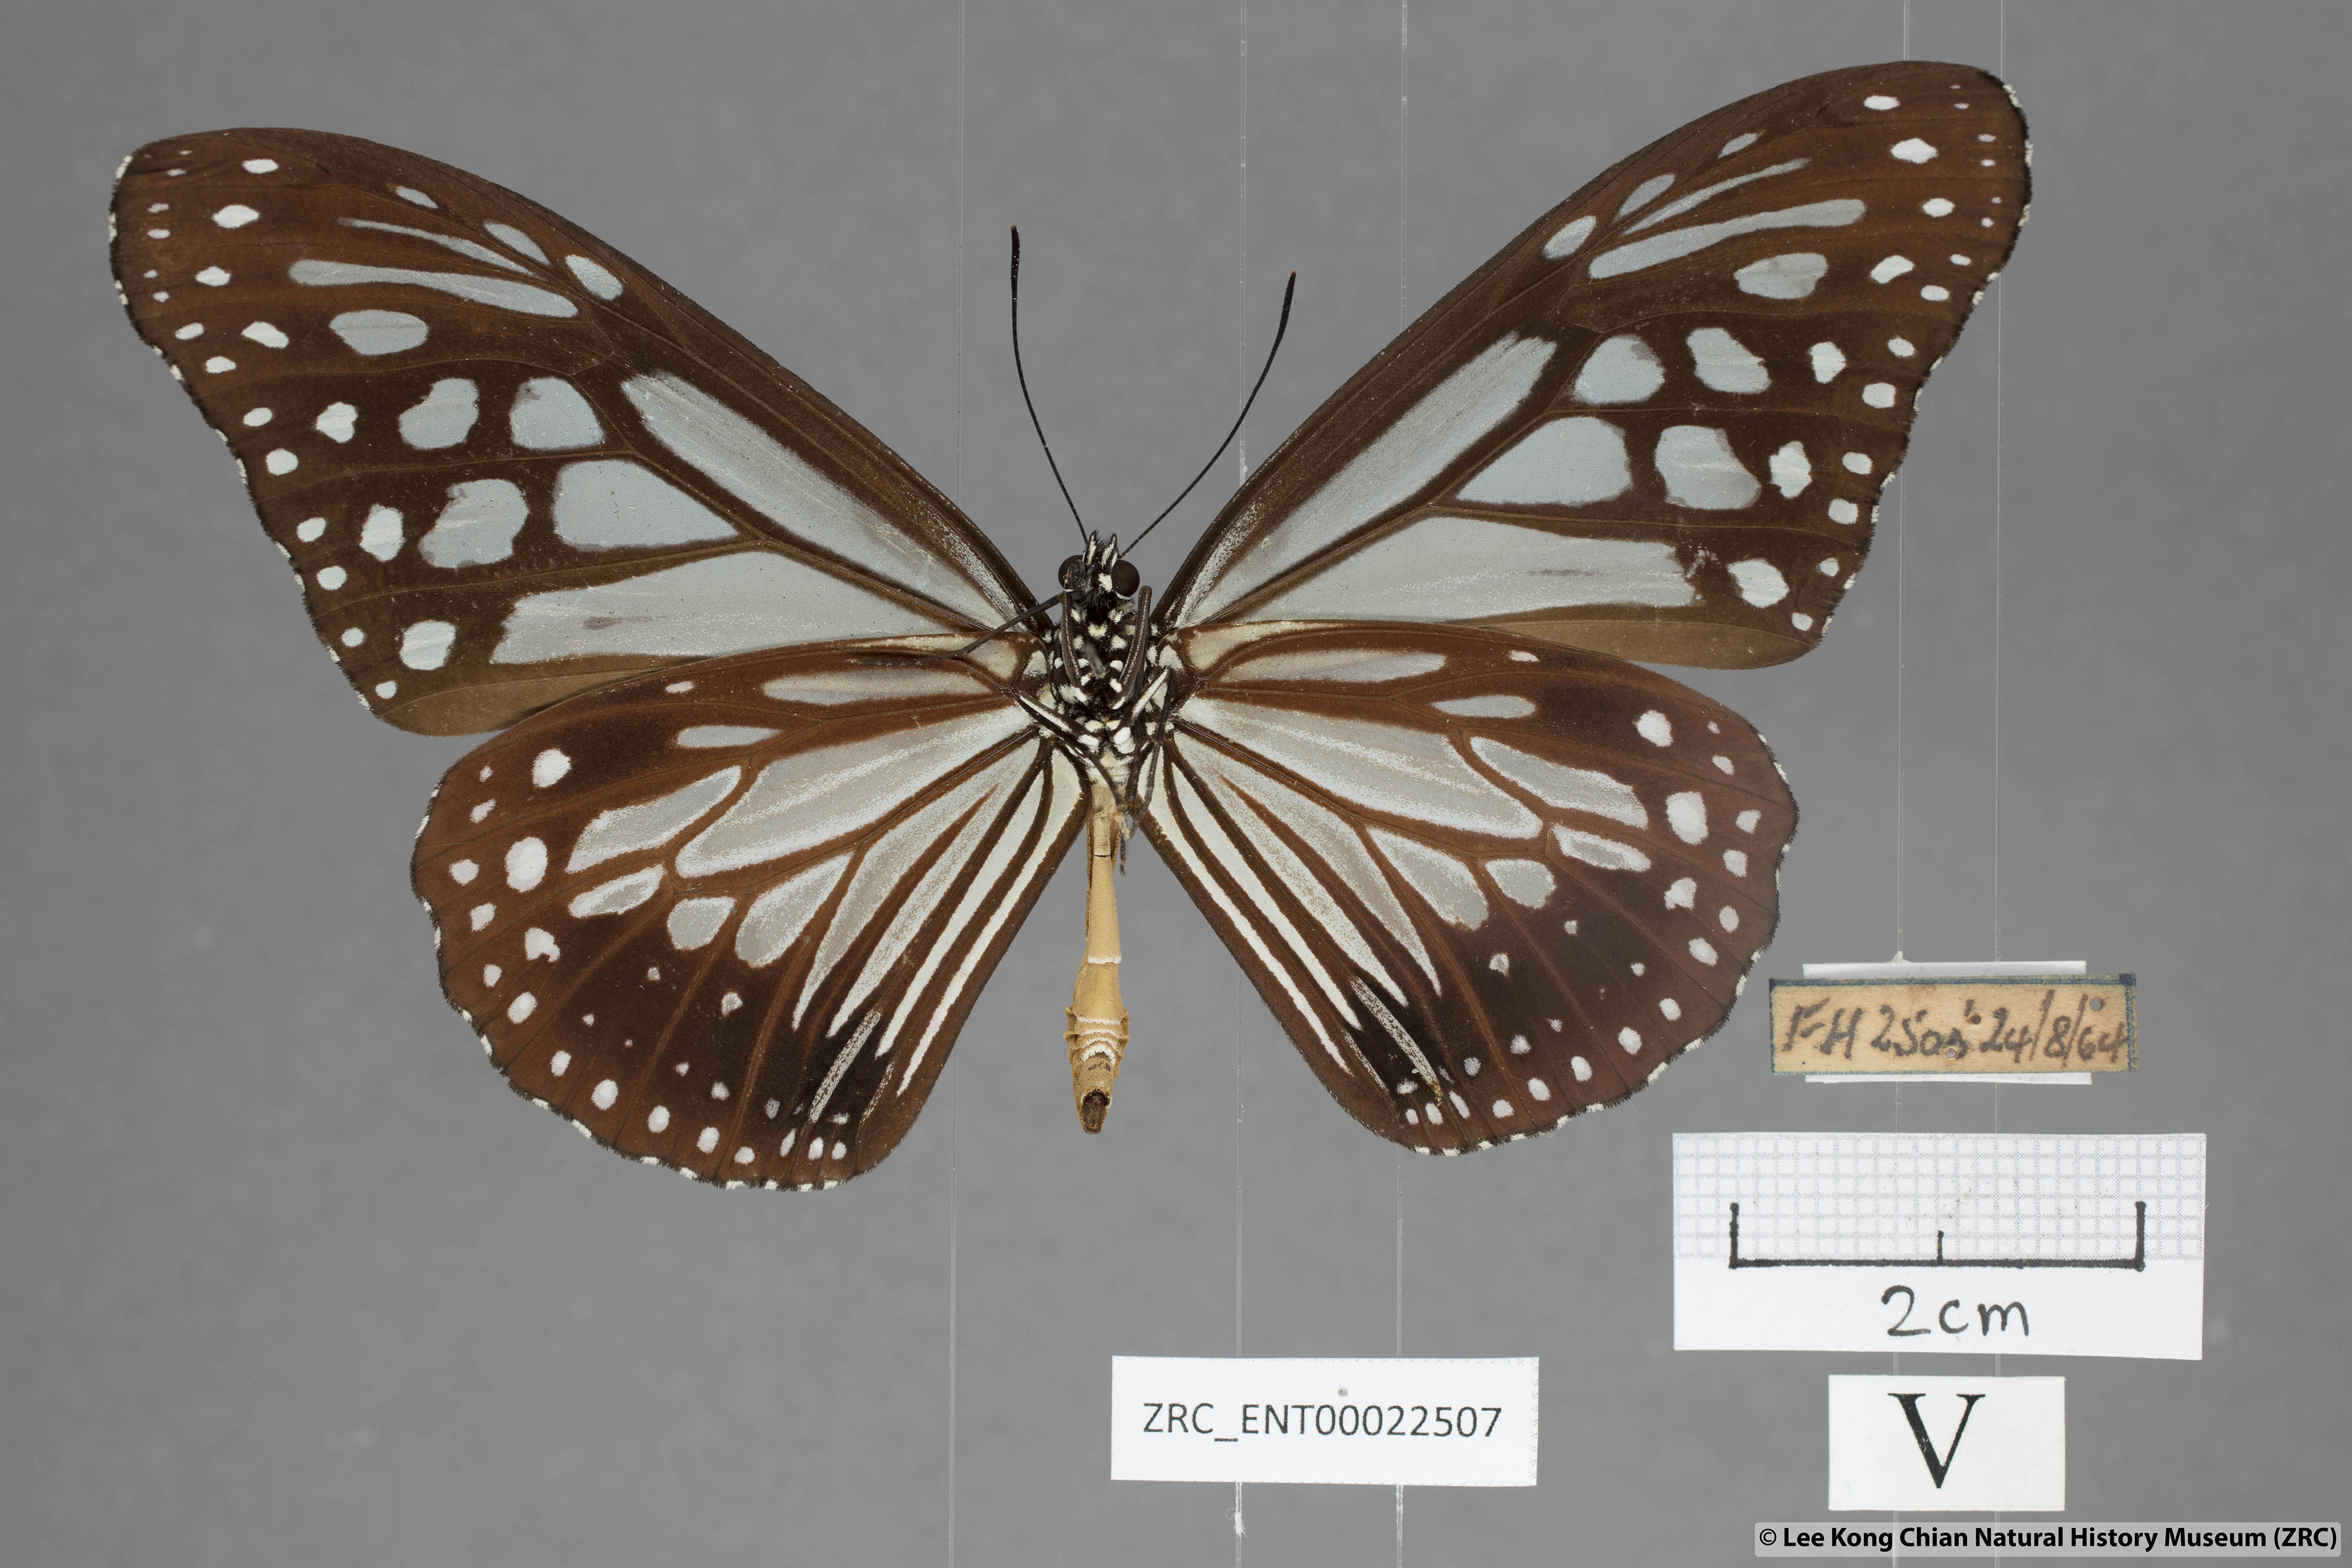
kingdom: Animalia
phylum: Arthropoda
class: Insecta
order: Lepidoptera
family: Nymphalidae
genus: Parantica
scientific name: Parantica melaneus
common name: Chocolate tiger
